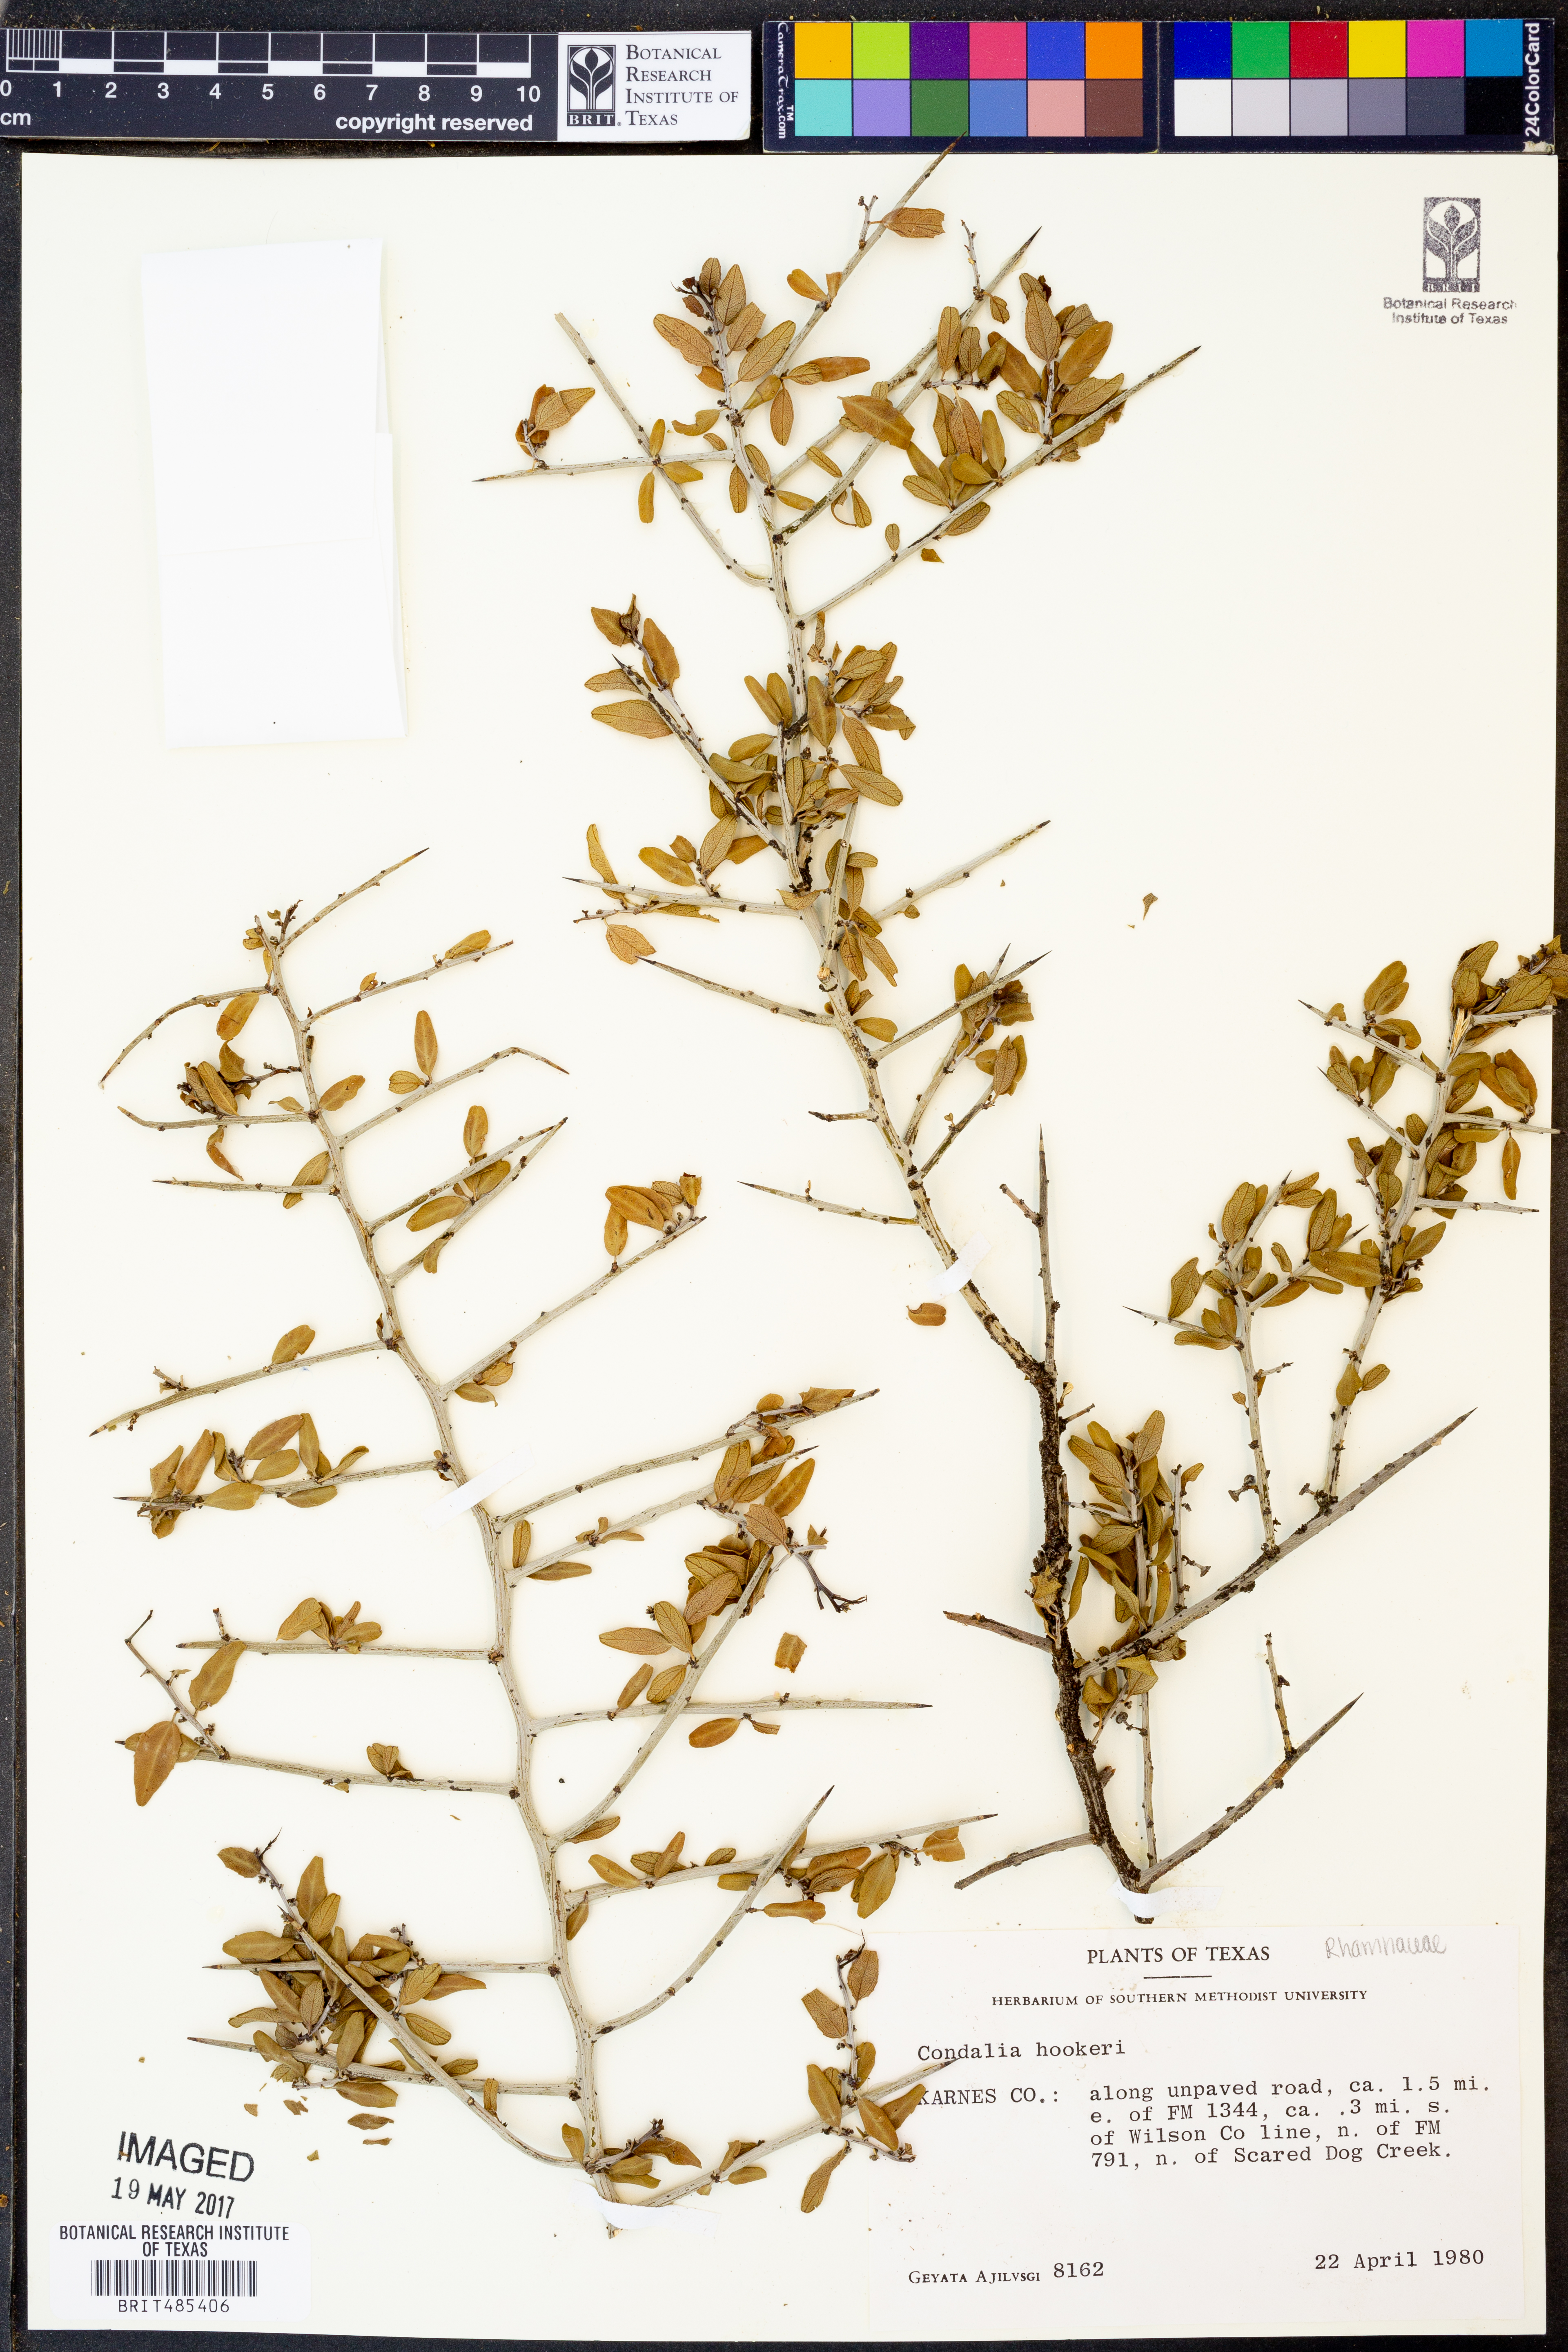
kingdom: Plantae
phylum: Tracheophyta
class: Magnoliopsida
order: Rosales
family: Rhamnaceae
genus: Condalia
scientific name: Condalia hookeri
